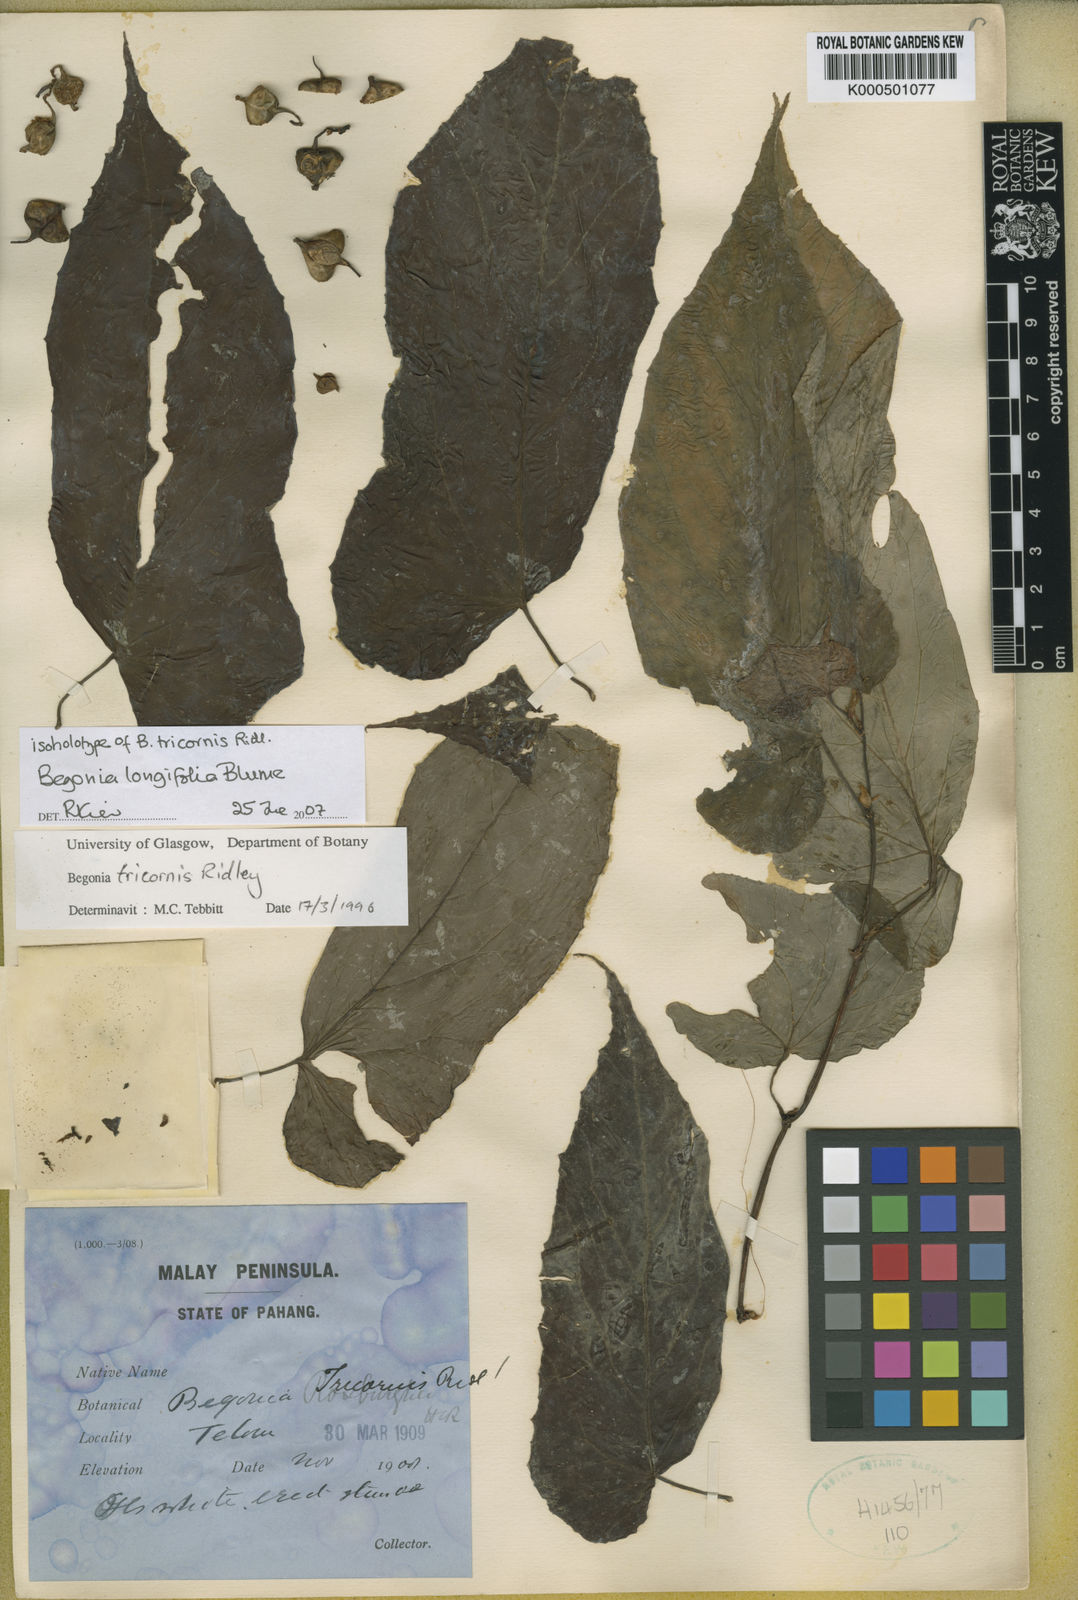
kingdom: Plantae
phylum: Tracheophyta
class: Magnoliopsida
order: Cucurbitales
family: Begoniaceae
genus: Begonia
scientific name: Begonia longifolia
